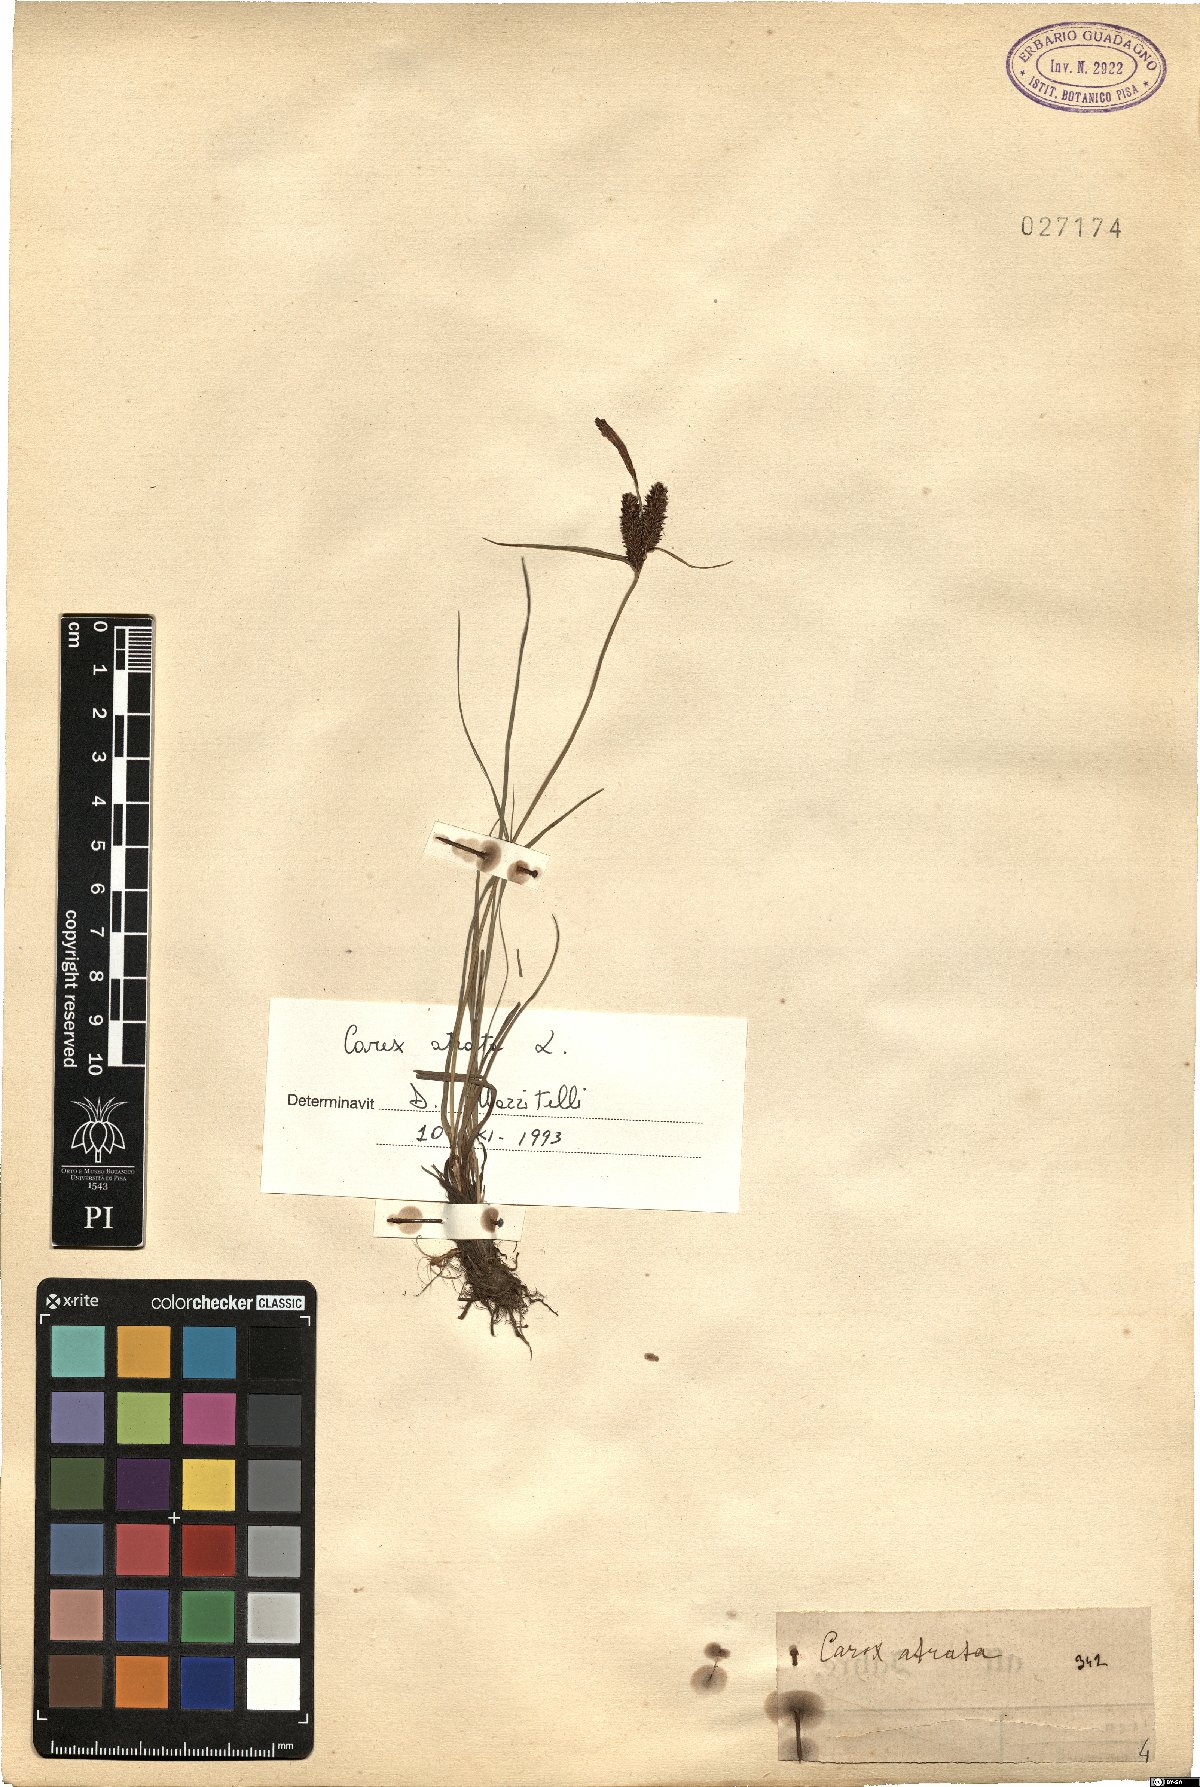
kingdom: Plantae
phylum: Tracheophyta
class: Liliopsida
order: Poales
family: Cyperaceae
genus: Carex
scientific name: Carex atrata
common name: Black alpine sedge
